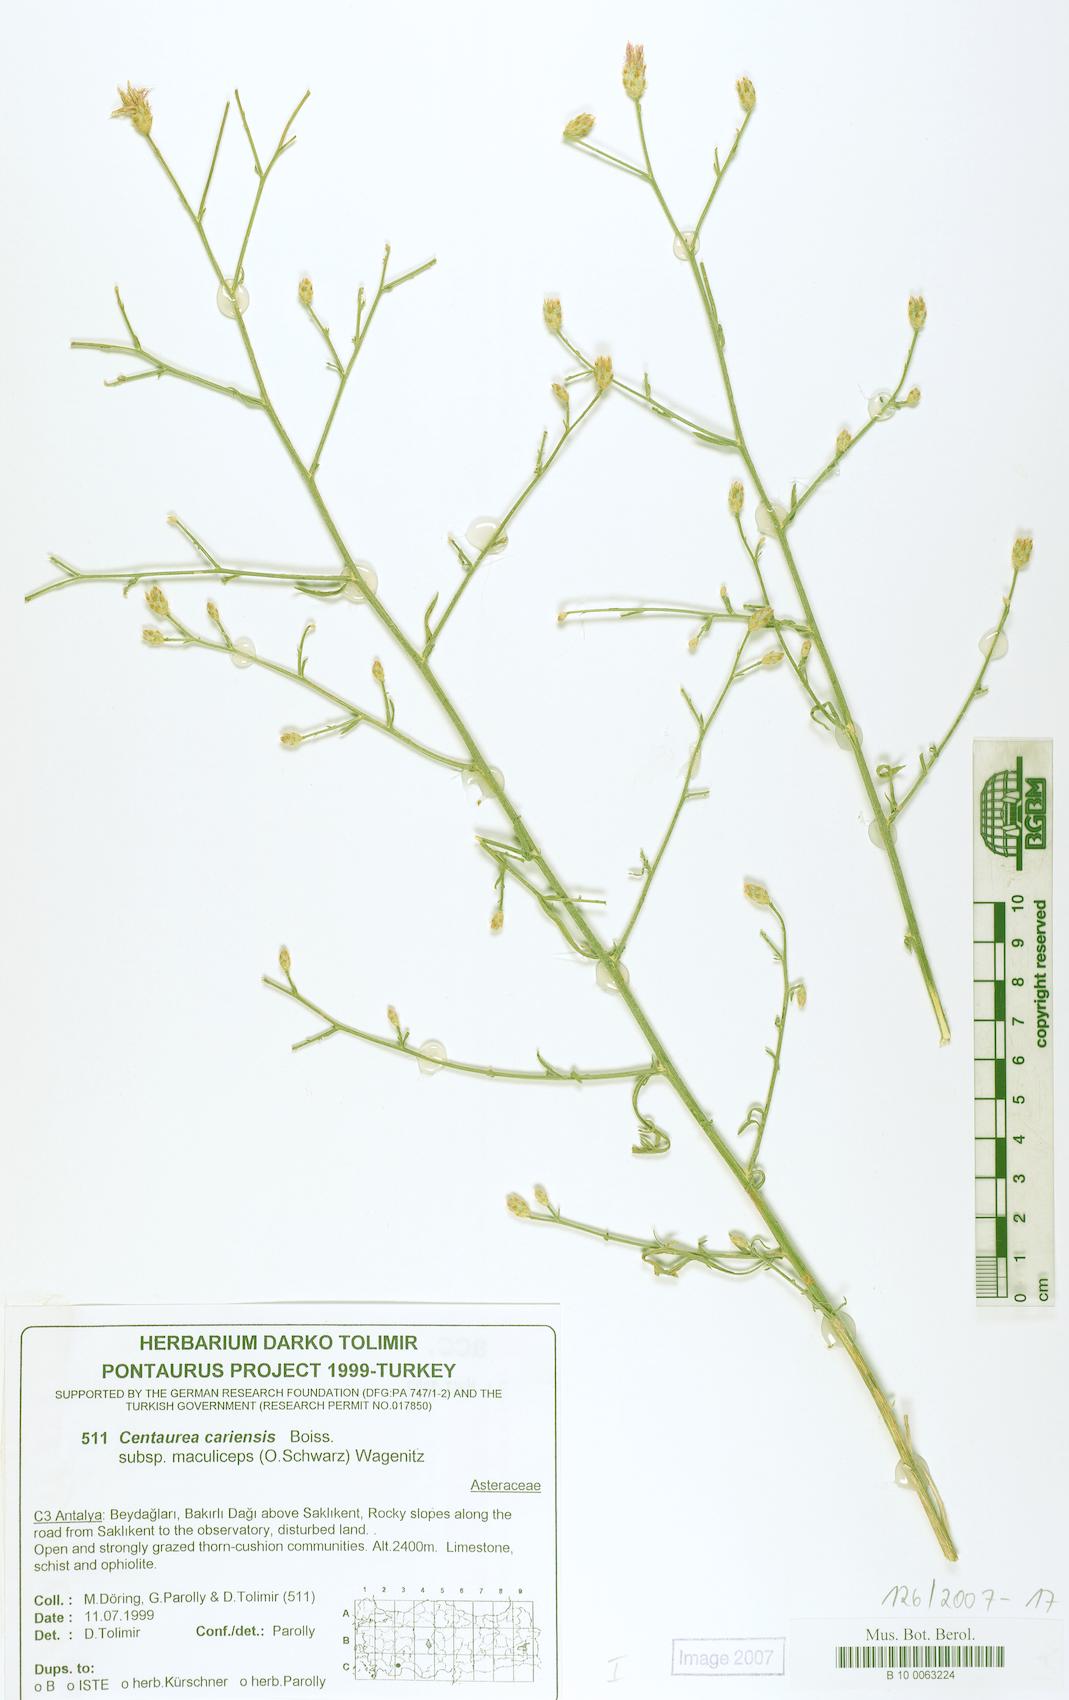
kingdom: Plantae
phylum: Tracheophyta
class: Magnoliopsida
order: Asterales
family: Asteraceae
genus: Centaurea
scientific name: Centaurea cariensis
